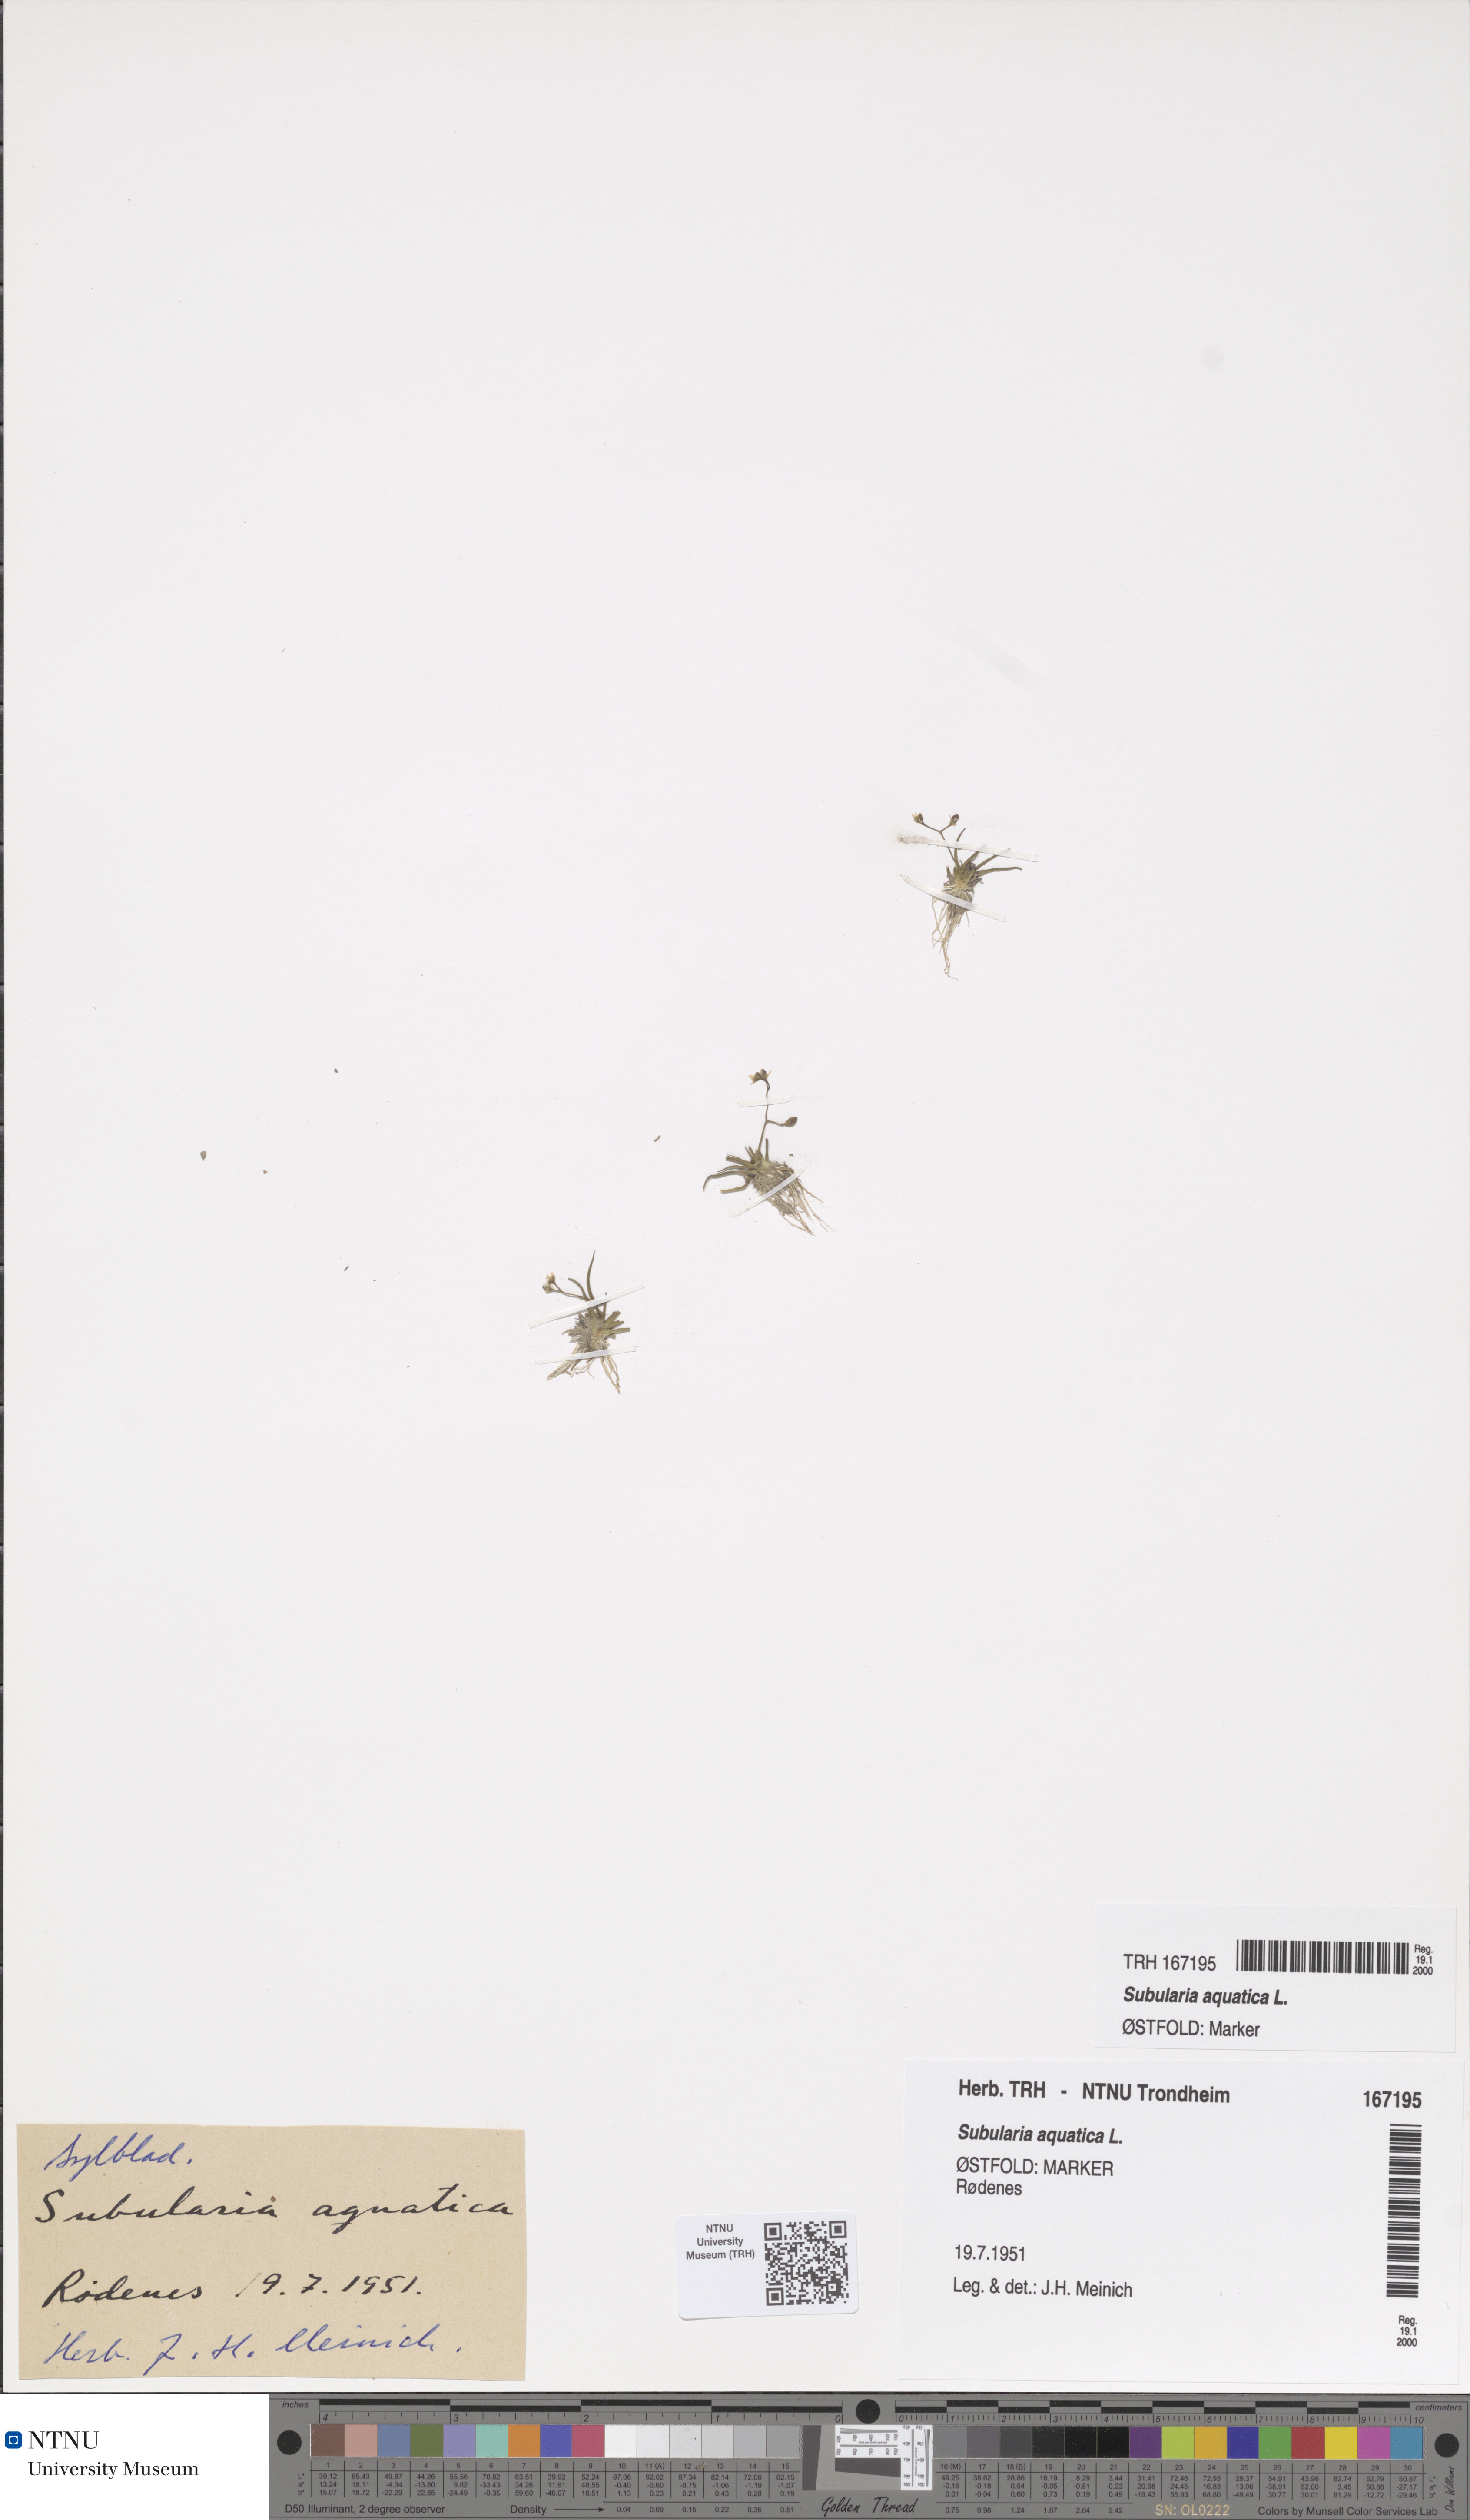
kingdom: Plantae
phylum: Tracheophyta
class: Magnoliopsida
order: Brassicales
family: Brassicaceae
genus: Subularia
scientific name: Subularia aquatica
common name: Awlwort
